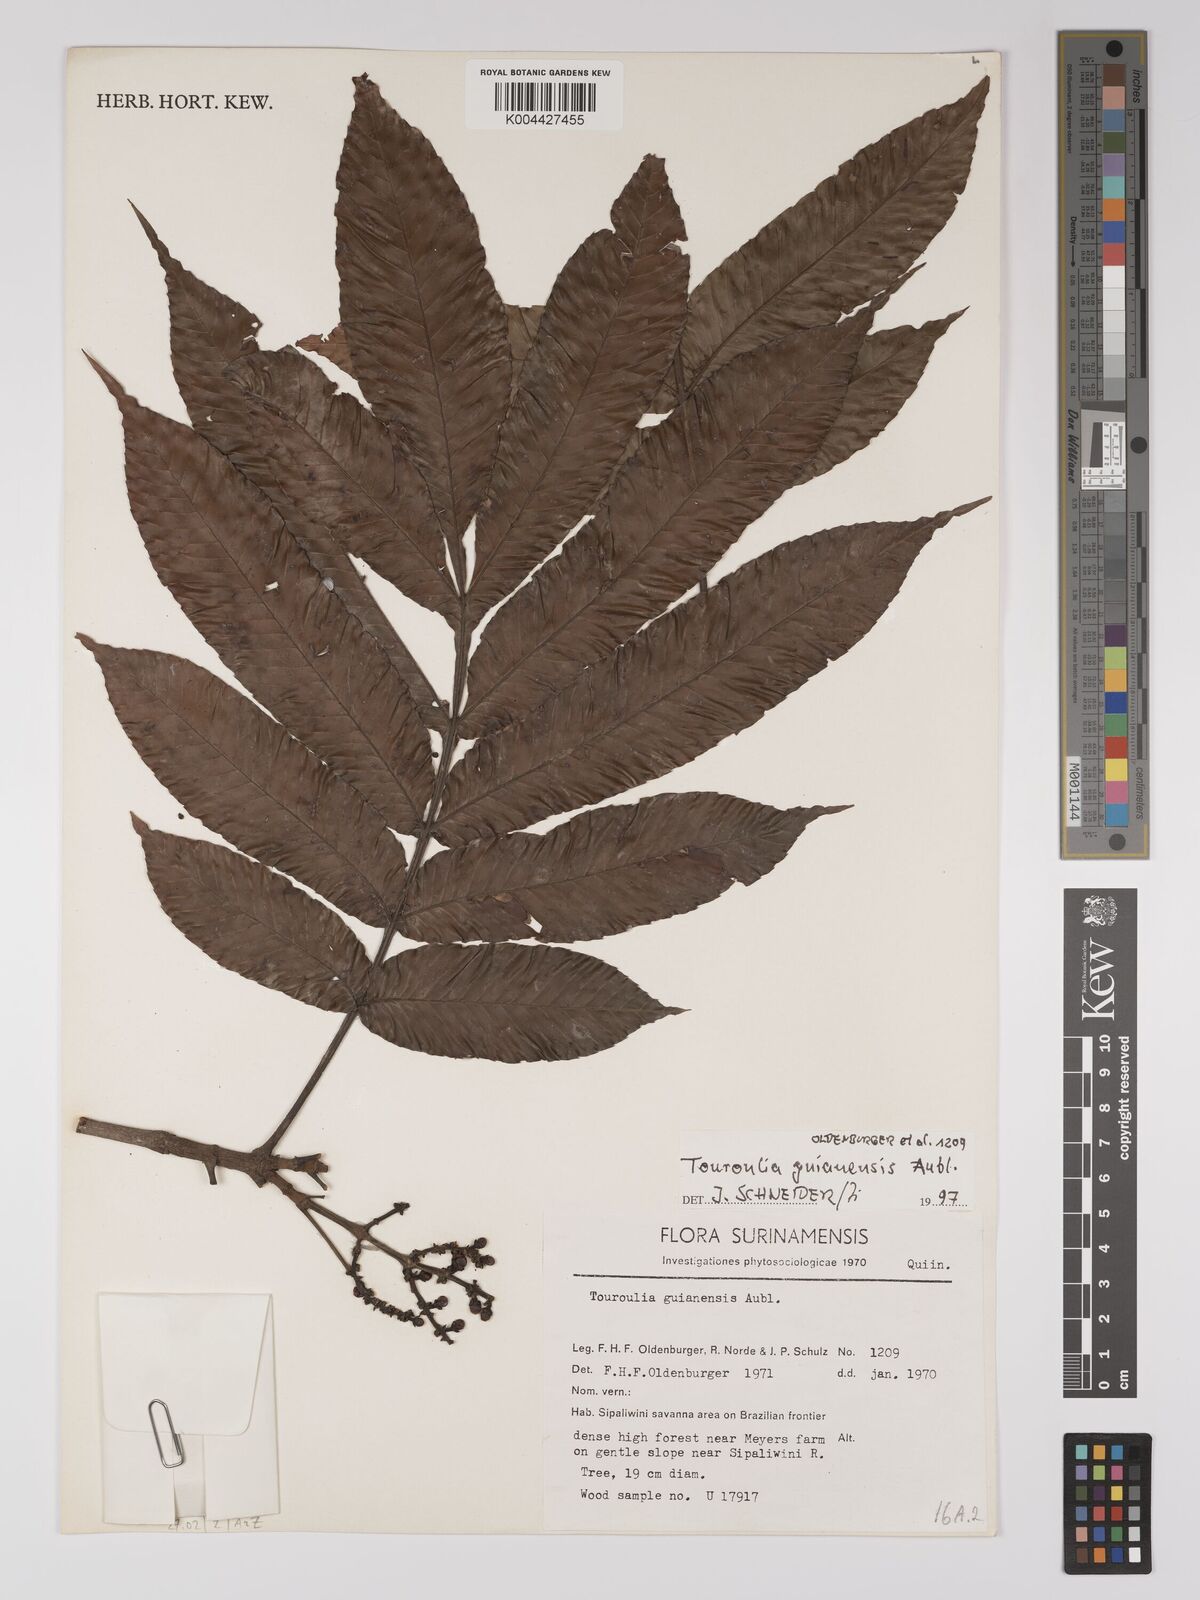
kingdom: Plantae
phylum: Tracheophyta
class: Magnoliopsida
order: Malpighiales
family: Quiinaceae
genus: Touroulia
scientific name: Touroulia guianensis
